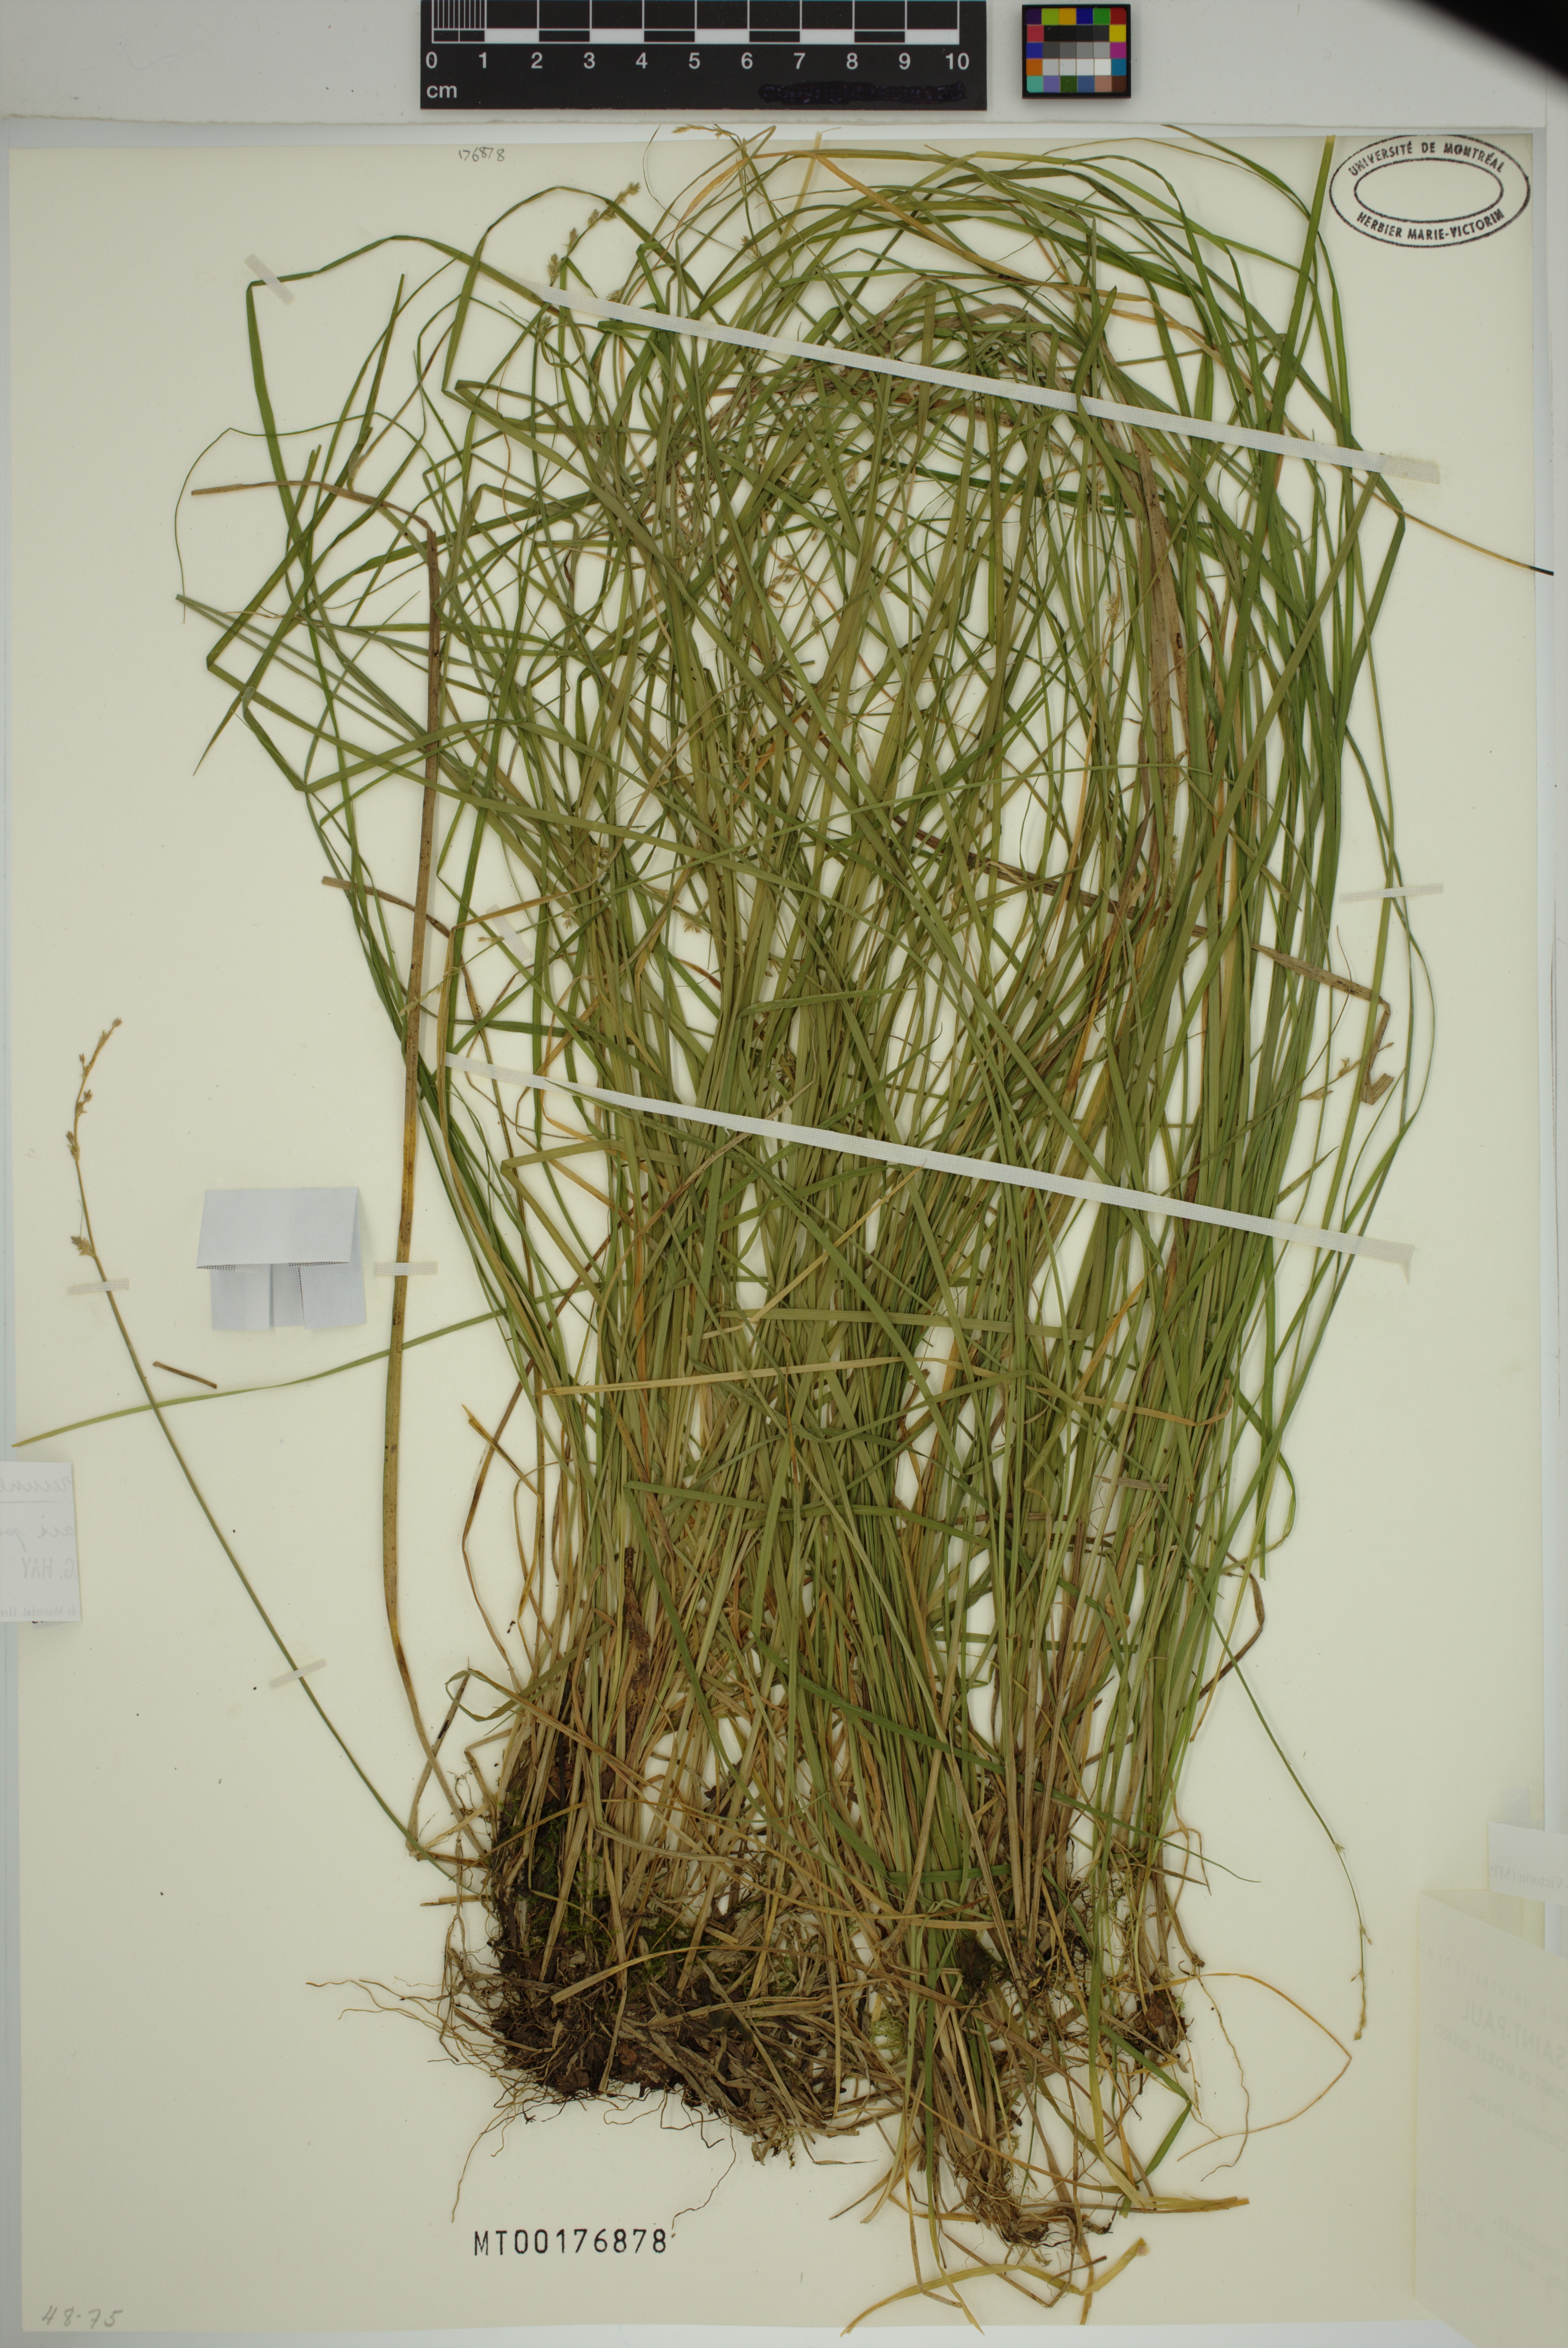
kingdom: Plantae
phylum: Tracheophyta
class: Liliopsida
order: Poales
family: Cyperaceae
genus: Carex
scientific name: Carex seorsa
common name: Swamp star sedge
